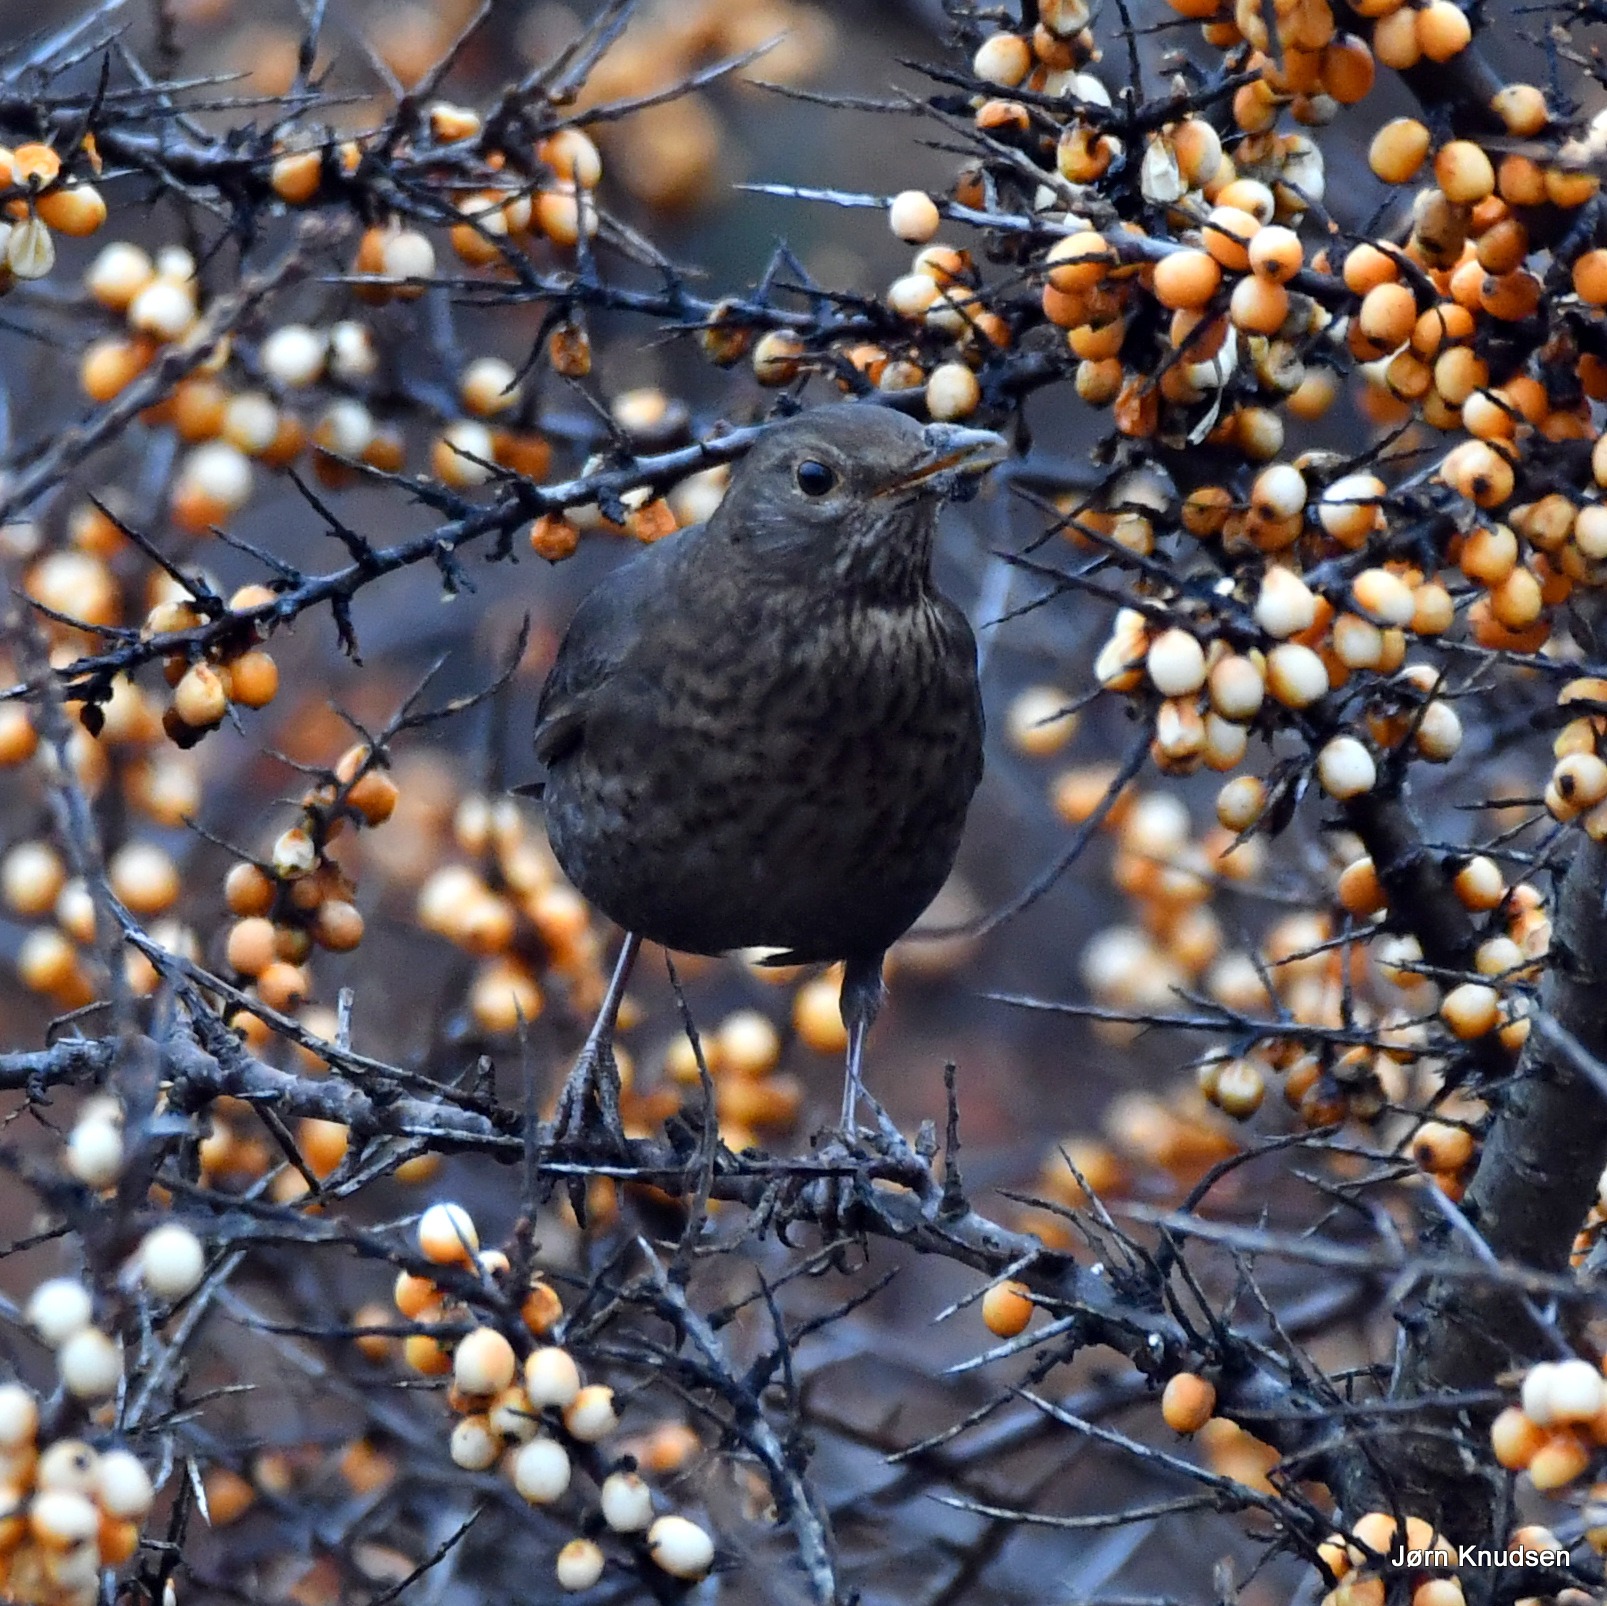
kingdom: Animalia
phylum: Chordata
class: Aves
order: Passeriformes
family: Turdidae
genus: Turdus
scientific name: Turdus merula
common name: Solsort
